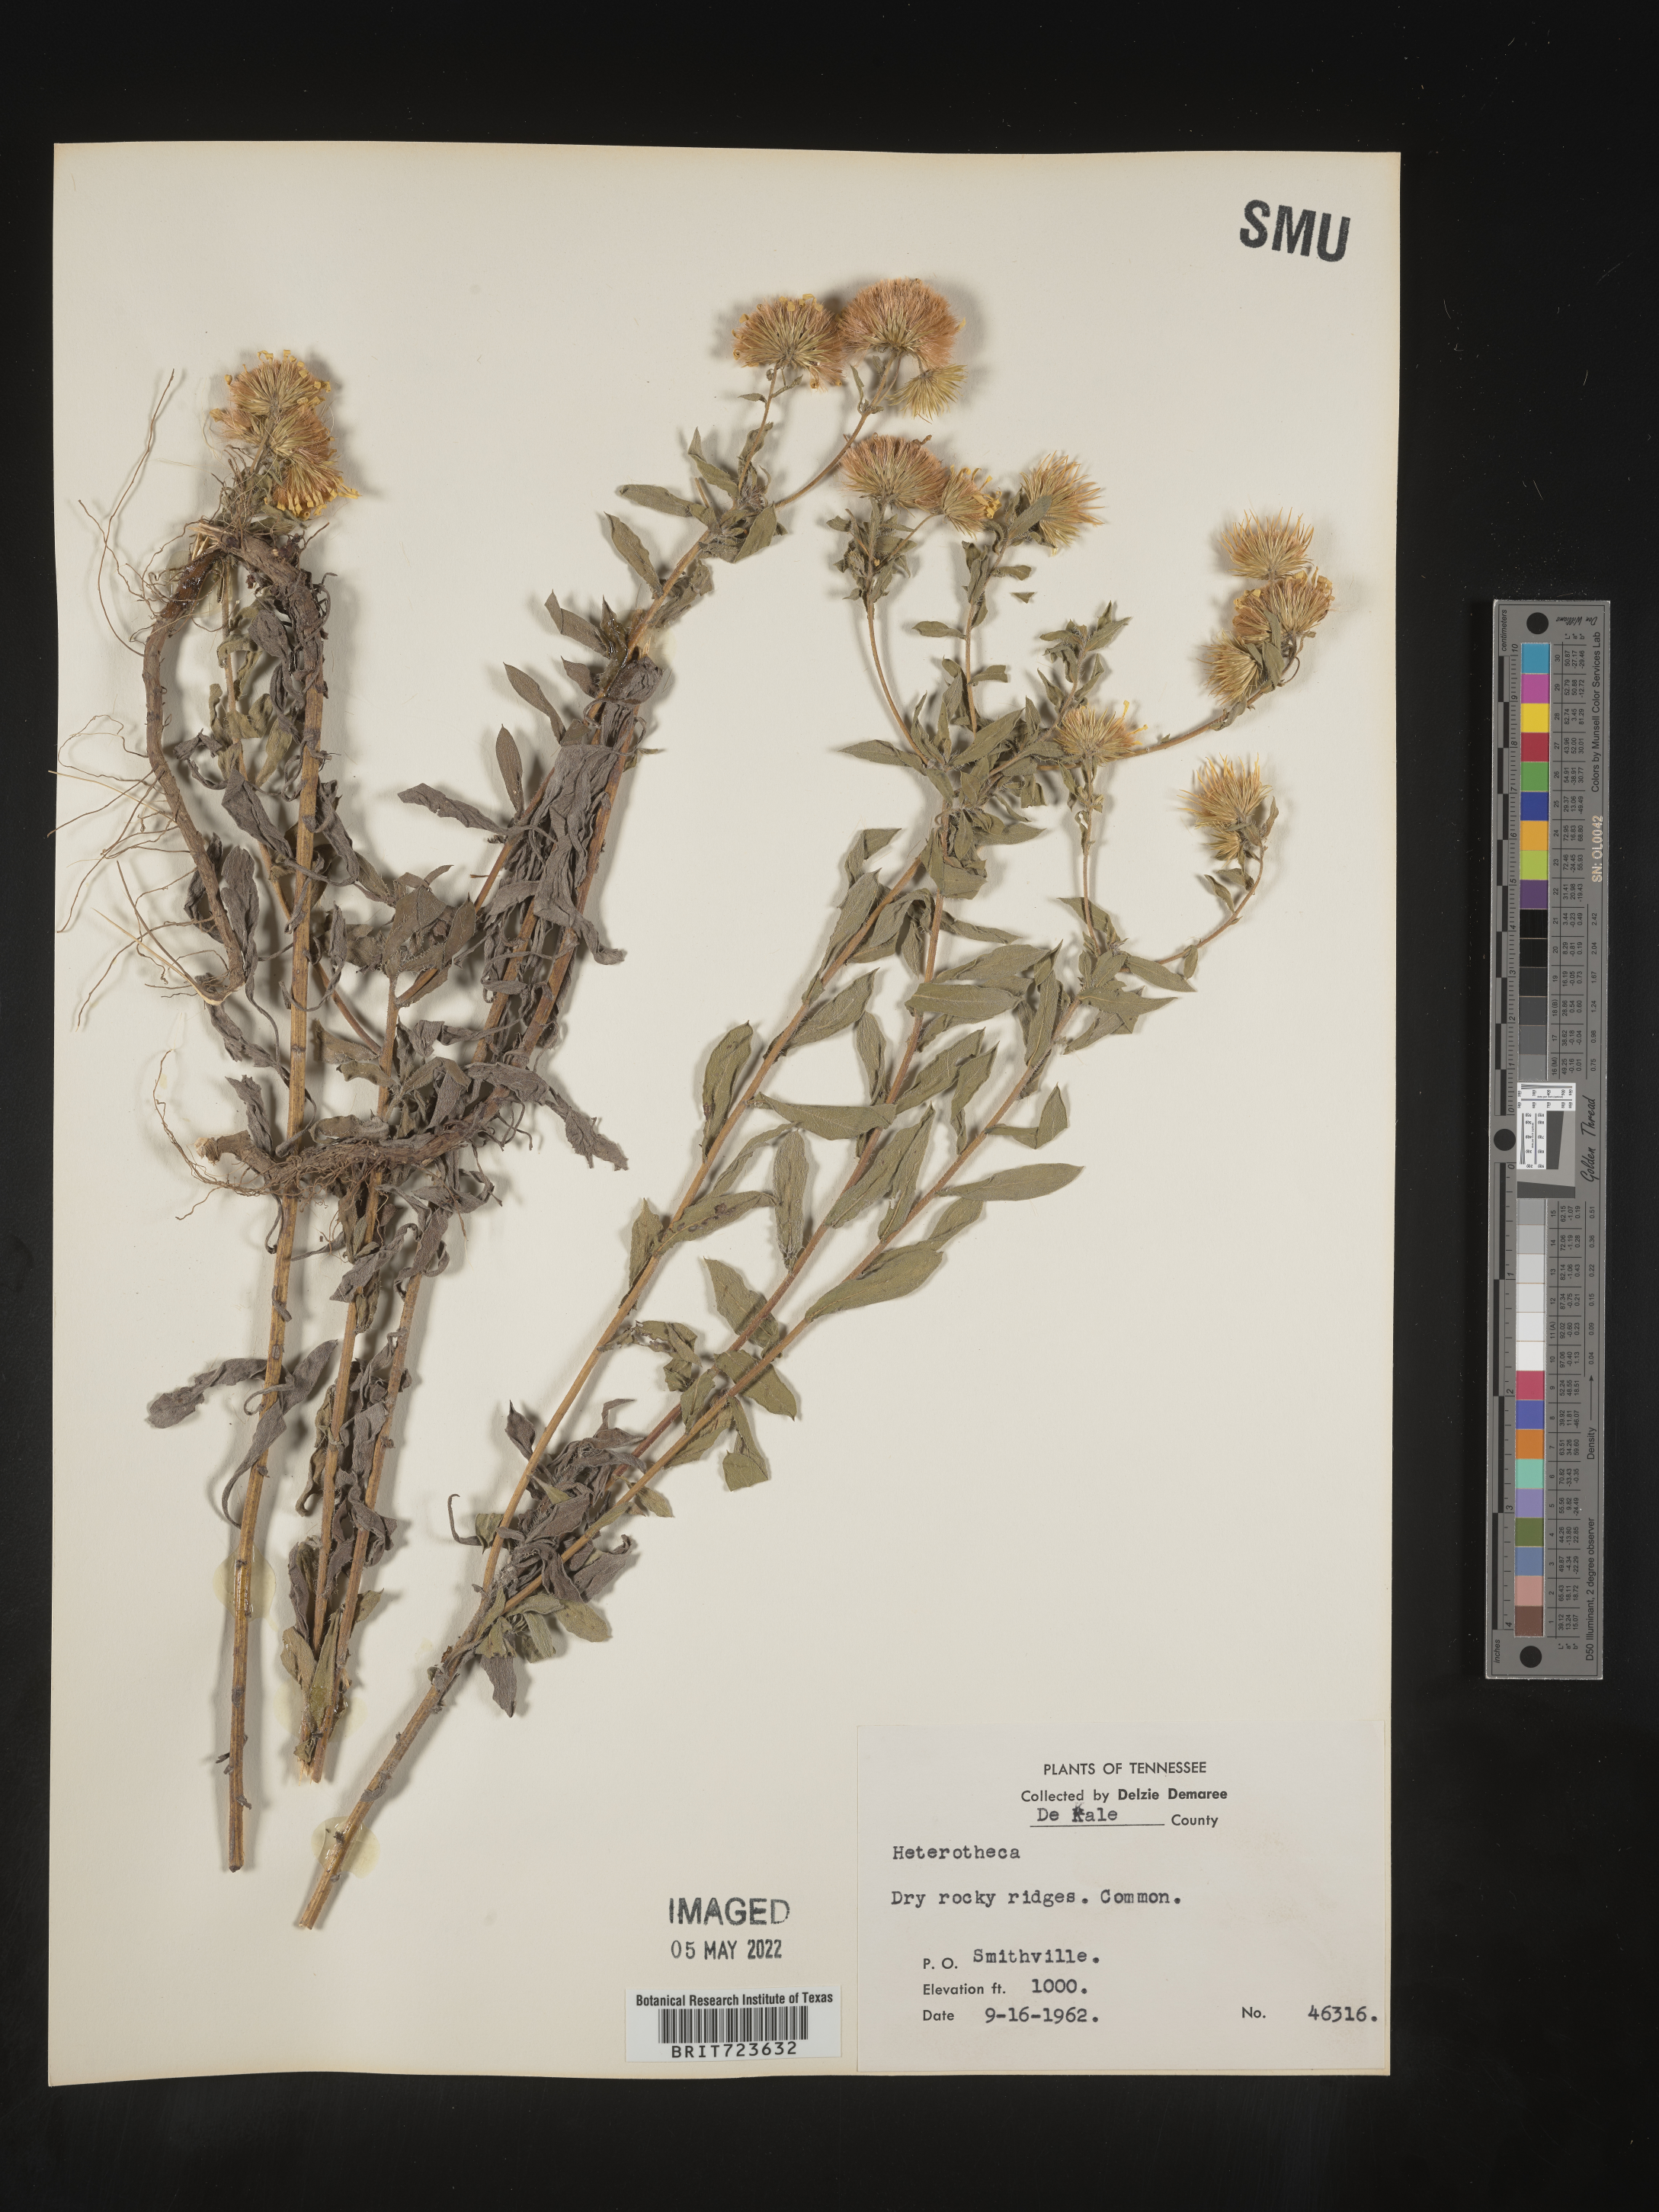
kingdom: Plantae
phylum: Tracheophyta
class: Magnoliopsida
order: Asterales
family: Asteraceae
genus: Heterotheca
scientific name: Heterotheca camporum
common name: Prairie golden-aster
